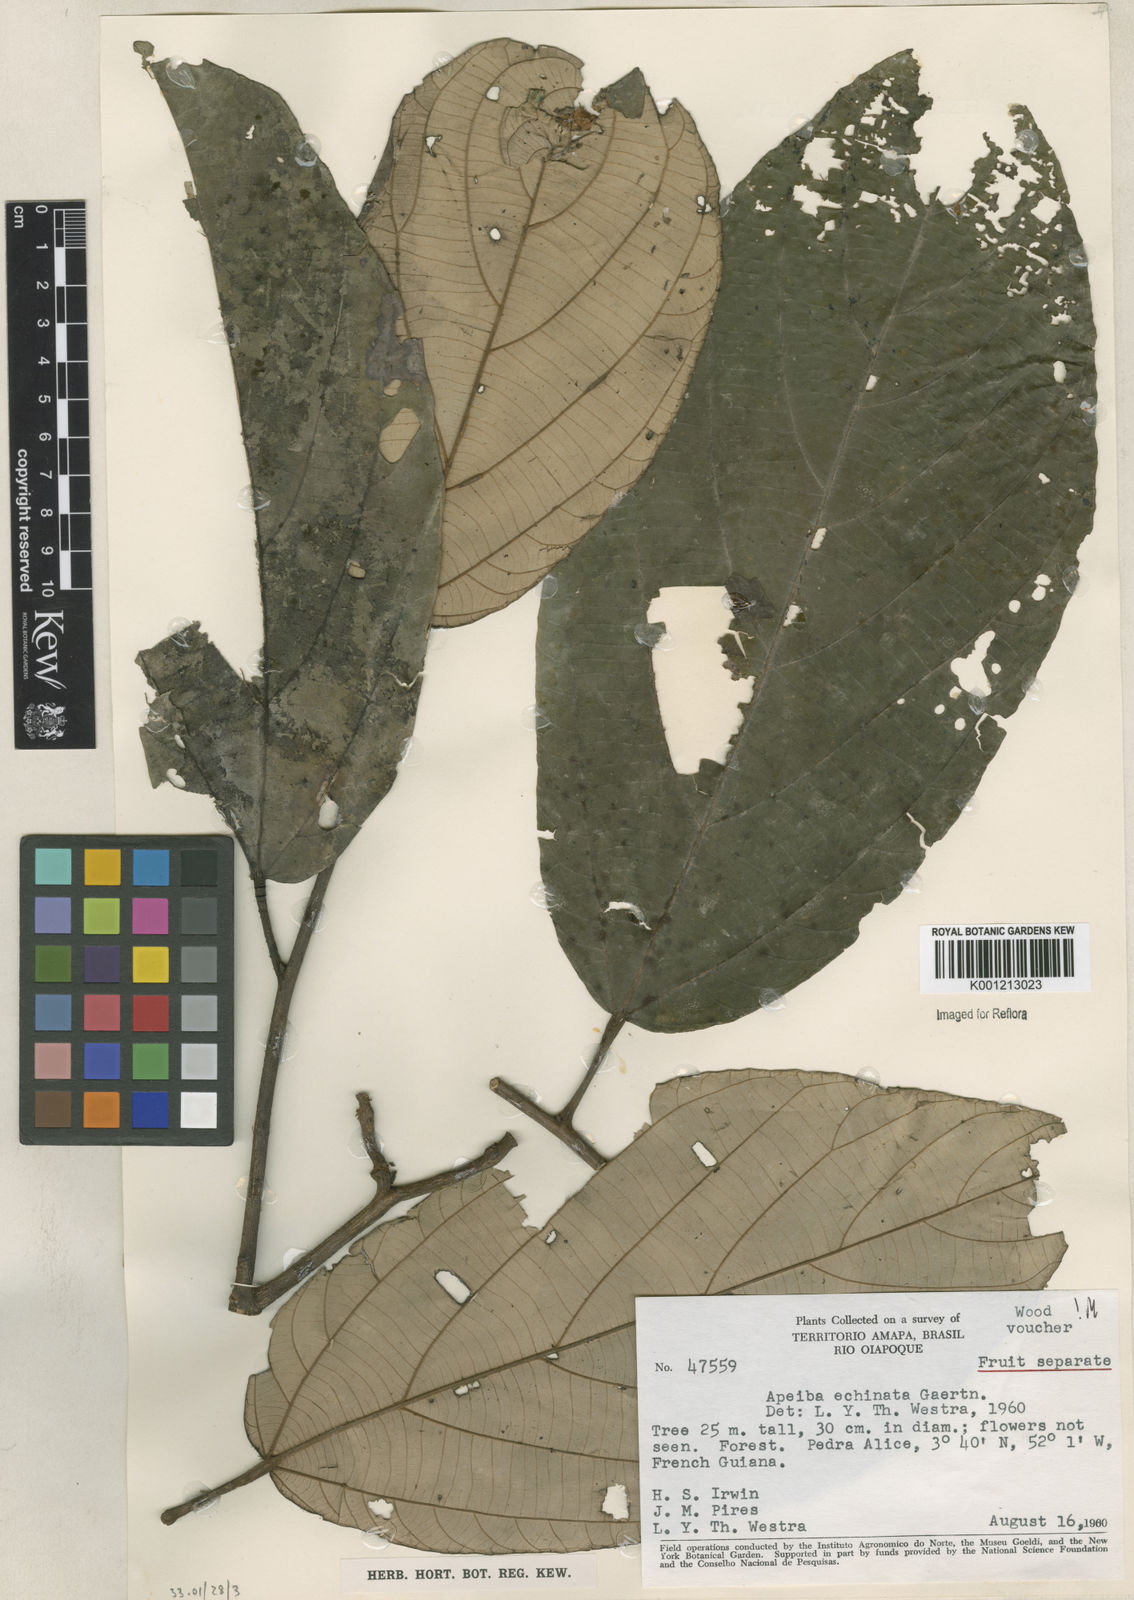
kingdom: Plantae
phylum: Tracheophyta
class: Magnoliopsida
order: Malvales
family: Malvaceae
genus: Apeiba
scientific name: Apeiba
